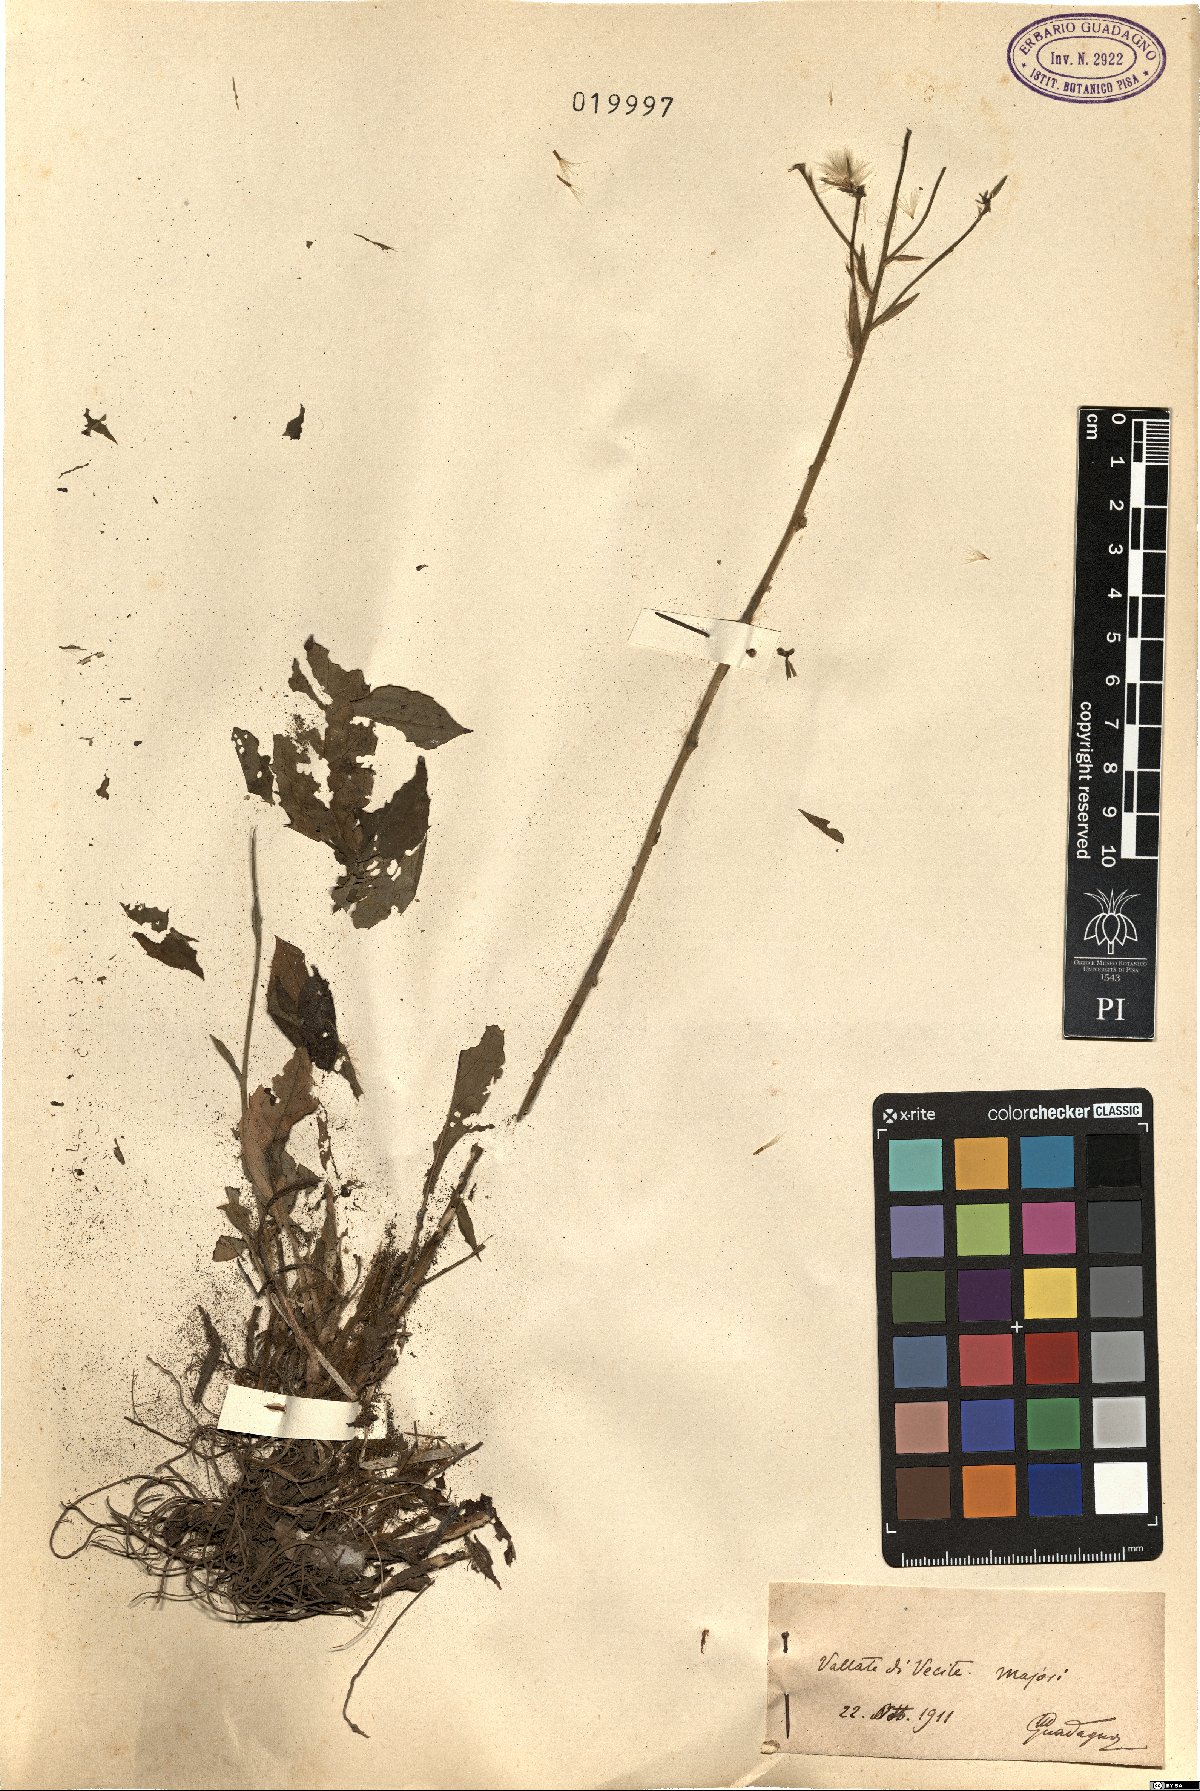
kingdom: Plantae
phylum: Tracheophyta
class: Magnoliopsida
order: Asterales
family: Asteraceae
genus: Hieracium
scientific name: Hieracium
